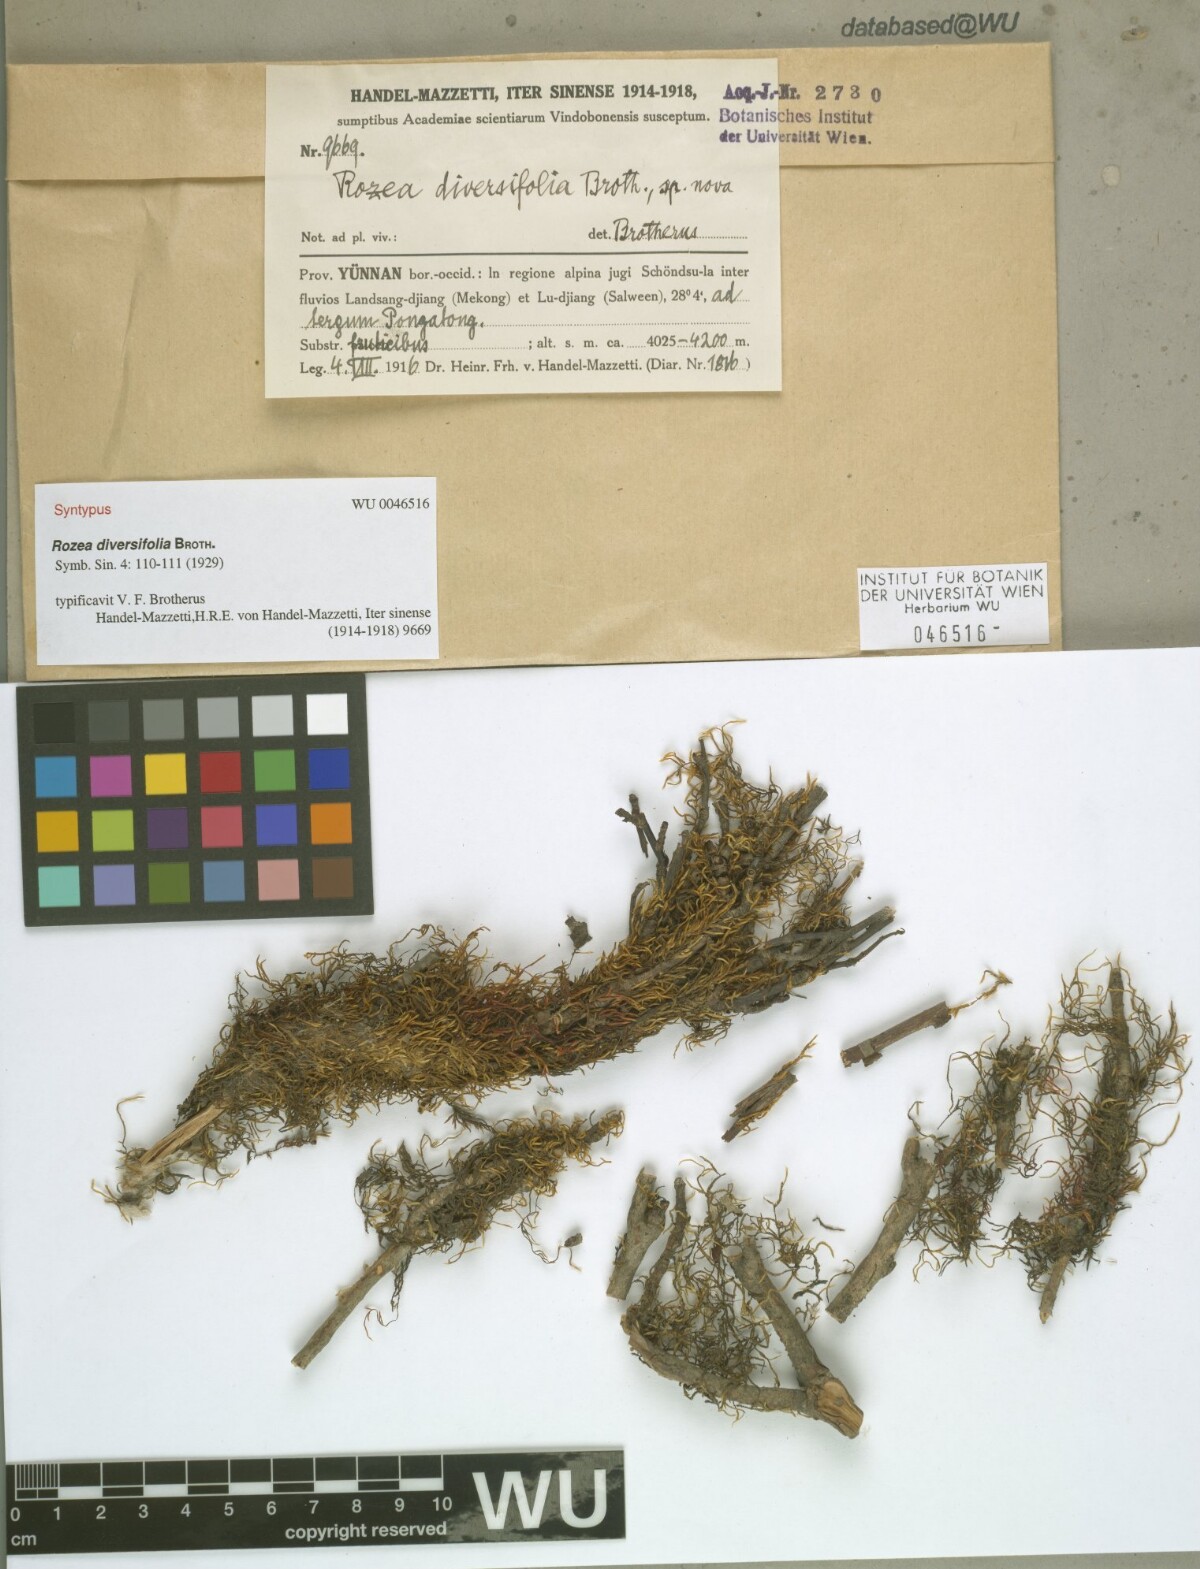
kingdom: Plantae
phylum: Bryophyta
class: Bryopsida
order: Hypnales
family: Leskeaceae
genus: Rozea
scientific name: Rozea diversifolia
